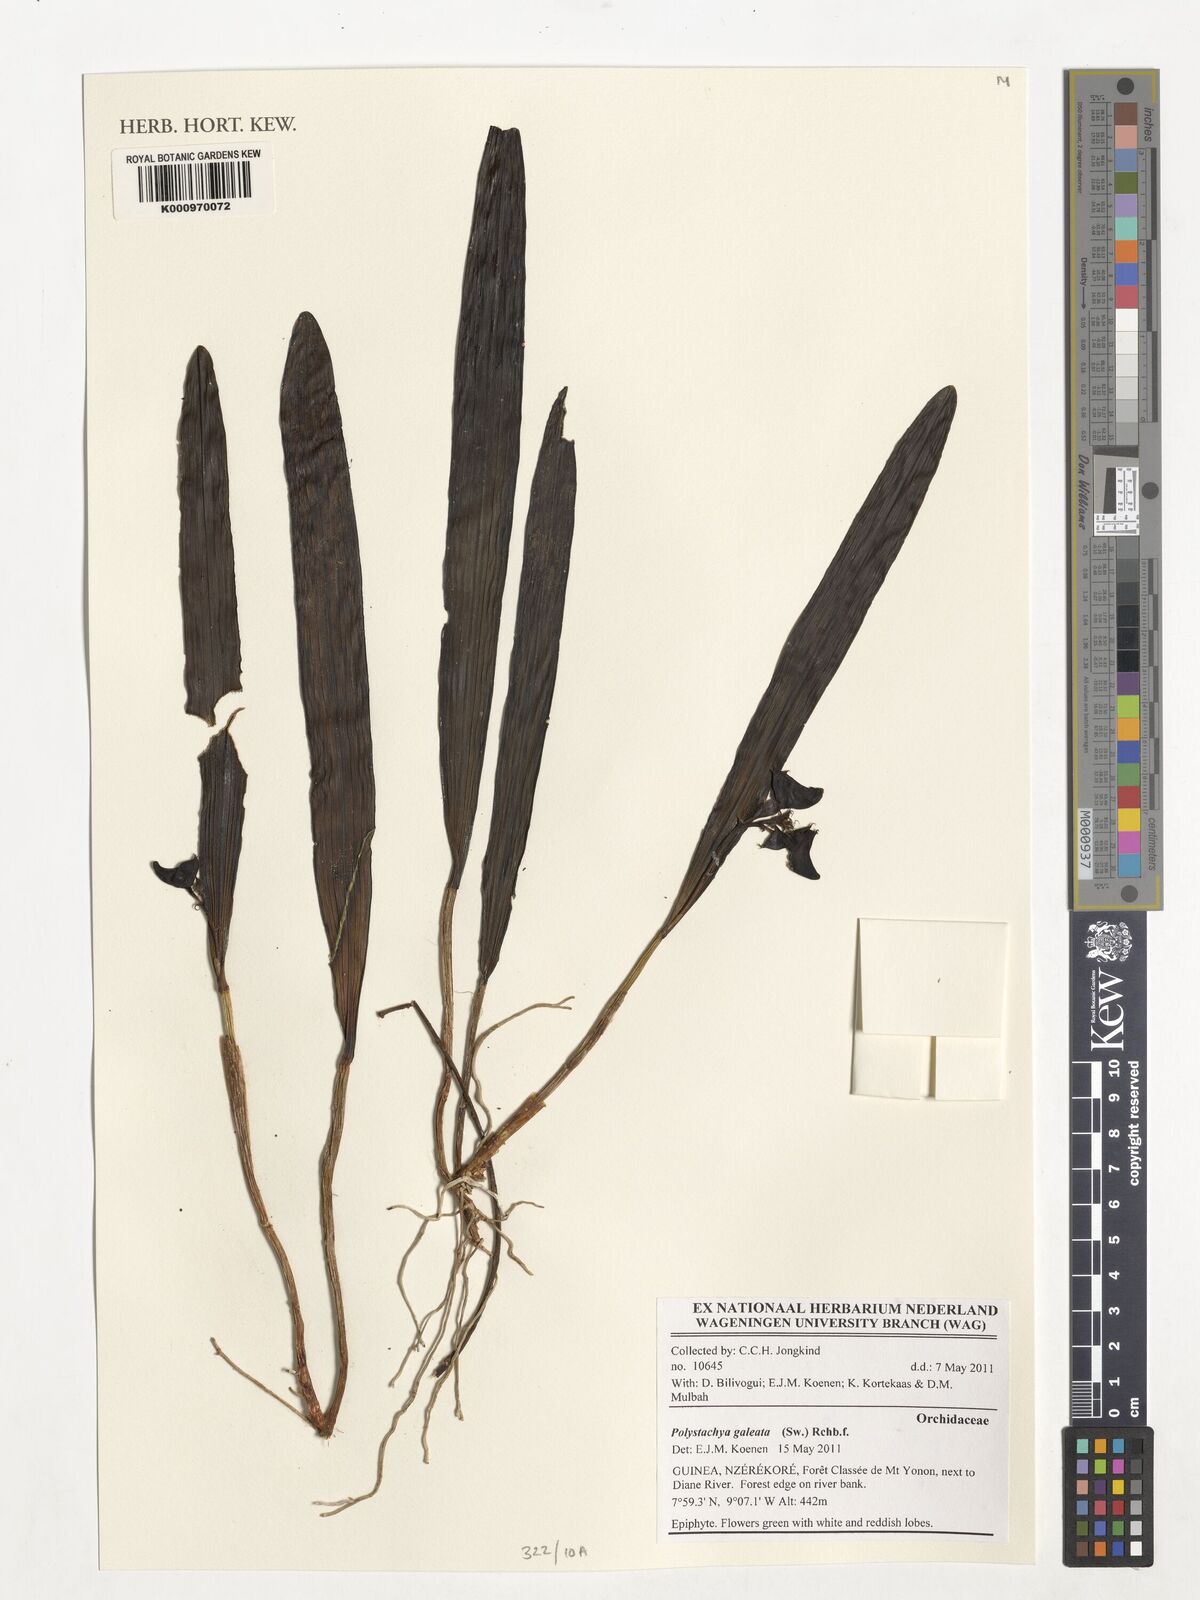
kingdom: Plantae
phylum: Tracheophyta
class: Liliopsida
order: Asparagales
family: Orchidaceae
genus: Polystachya
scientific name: Polystachya galeata
